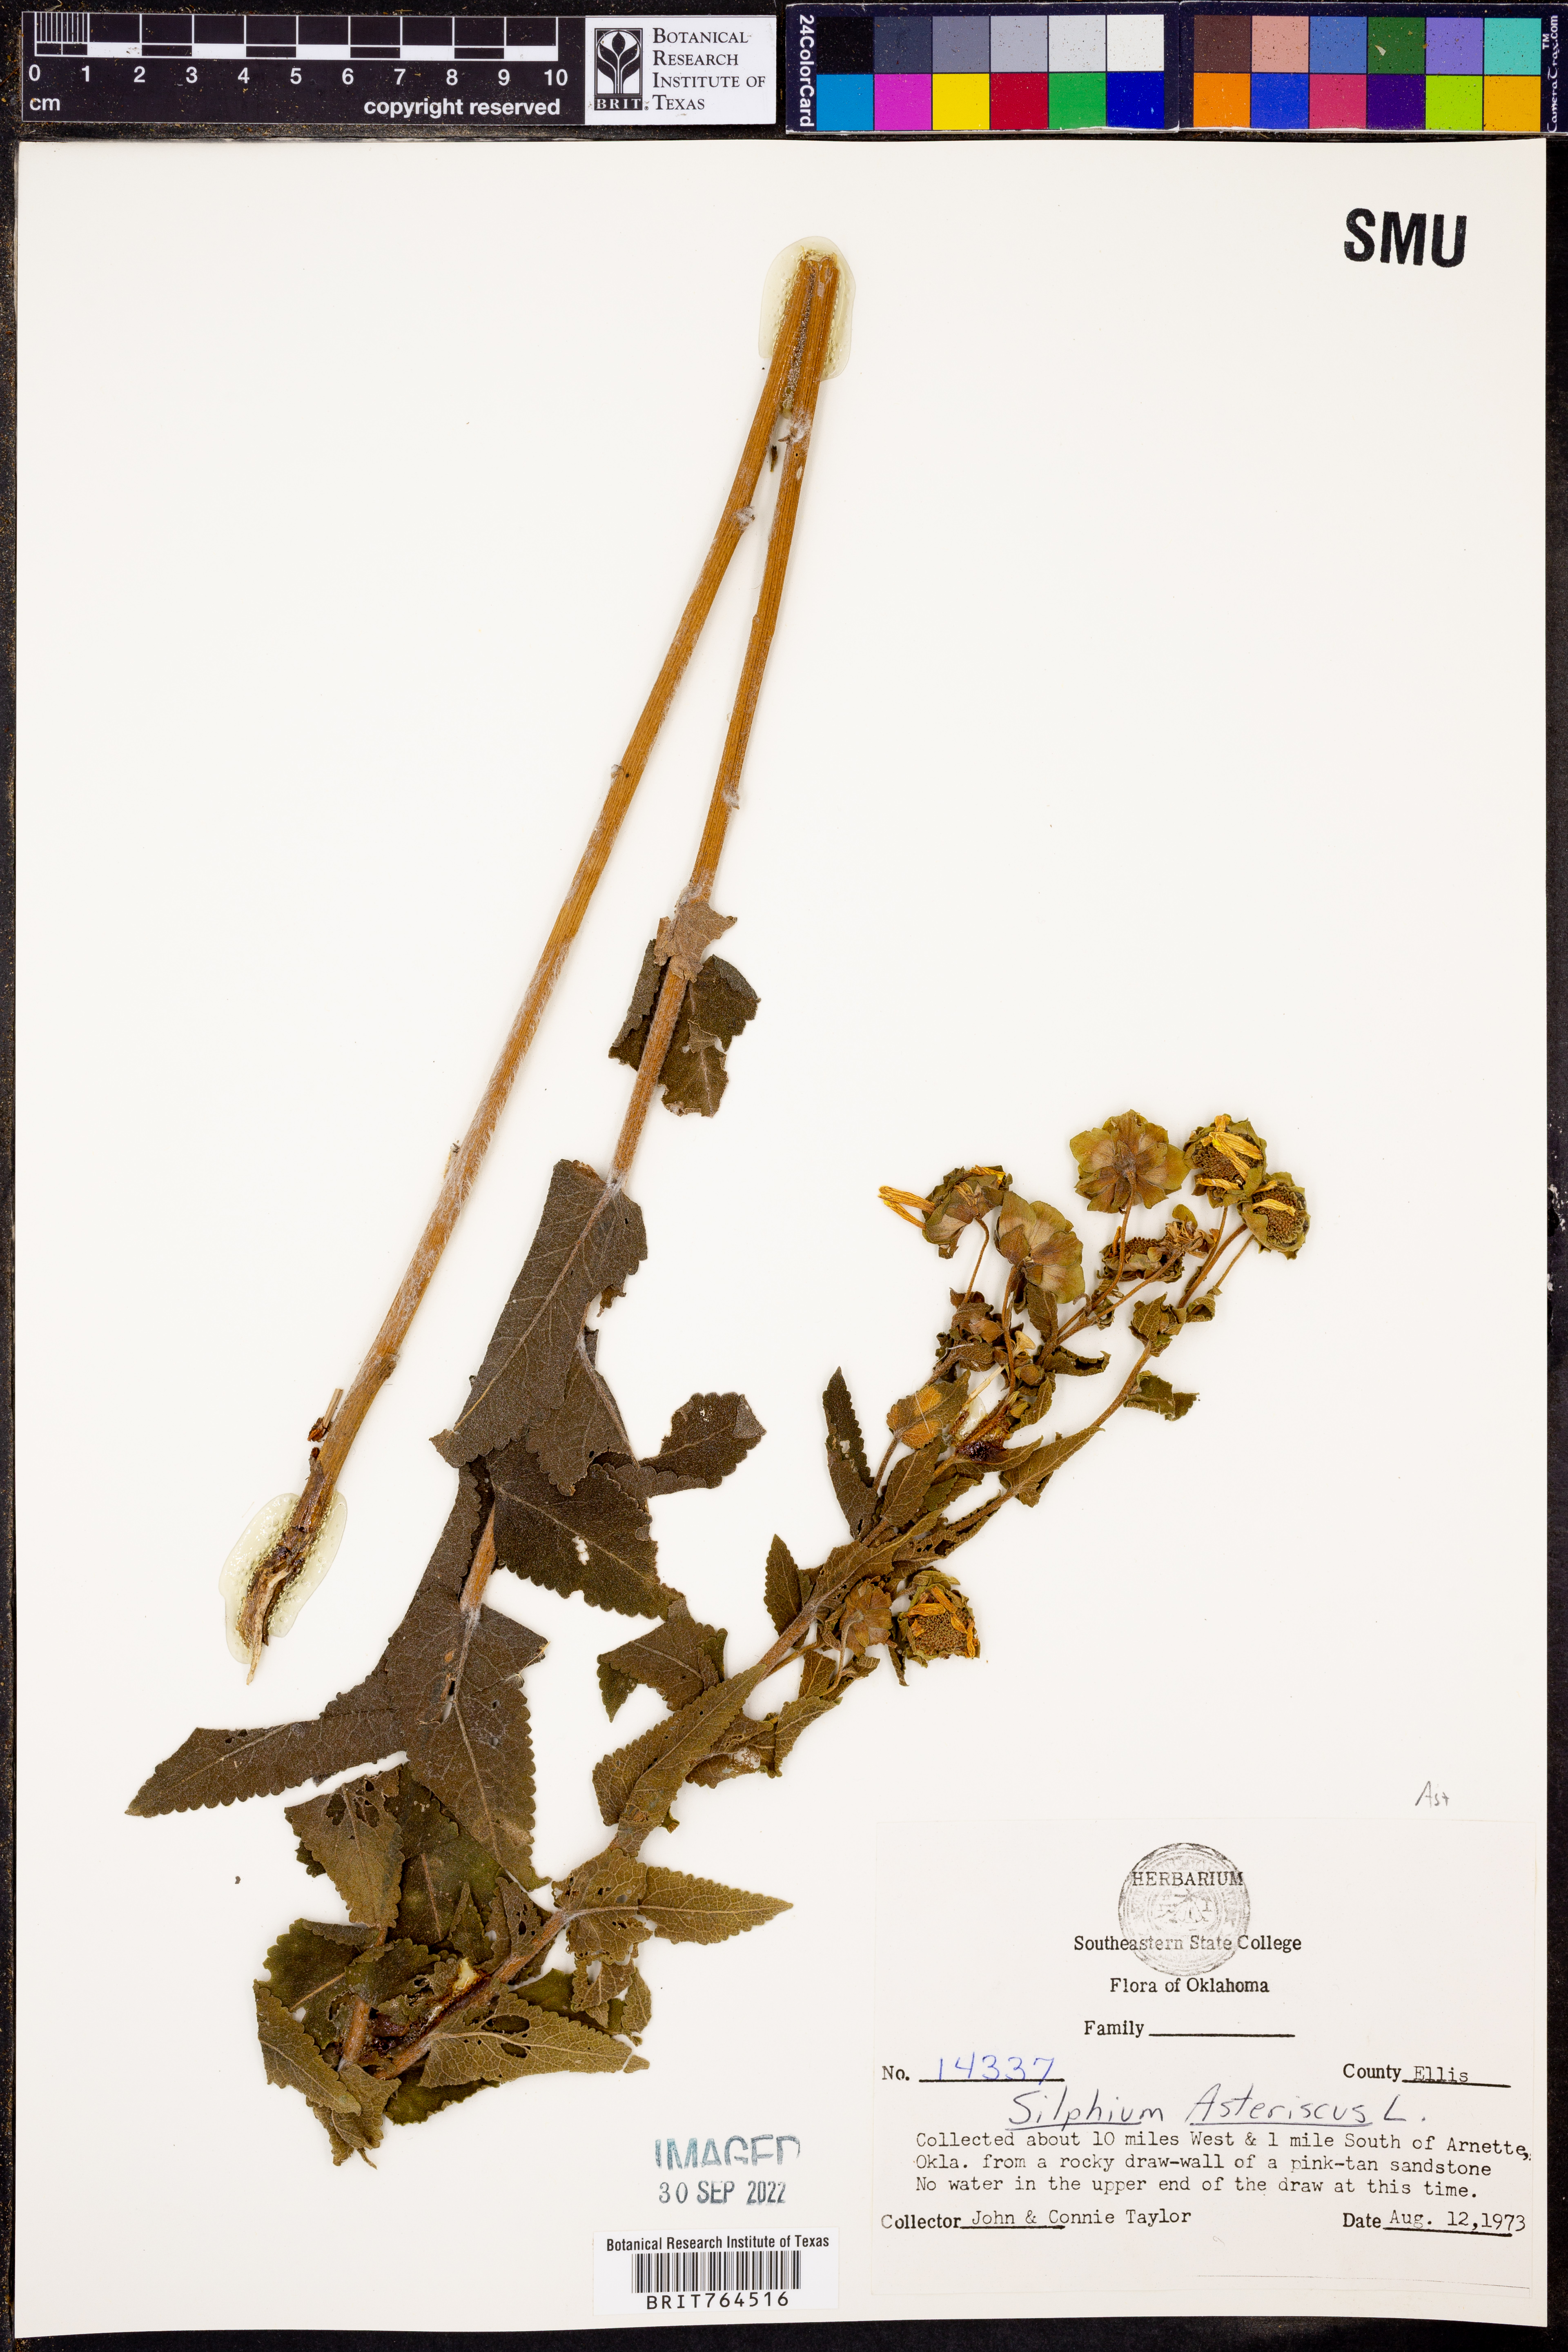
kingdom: Plantae
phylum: Tracheophyta
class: Magnoliopsida
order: Asterales
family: Asteraceae
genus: Silphium
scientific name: Silphium asteriscus
